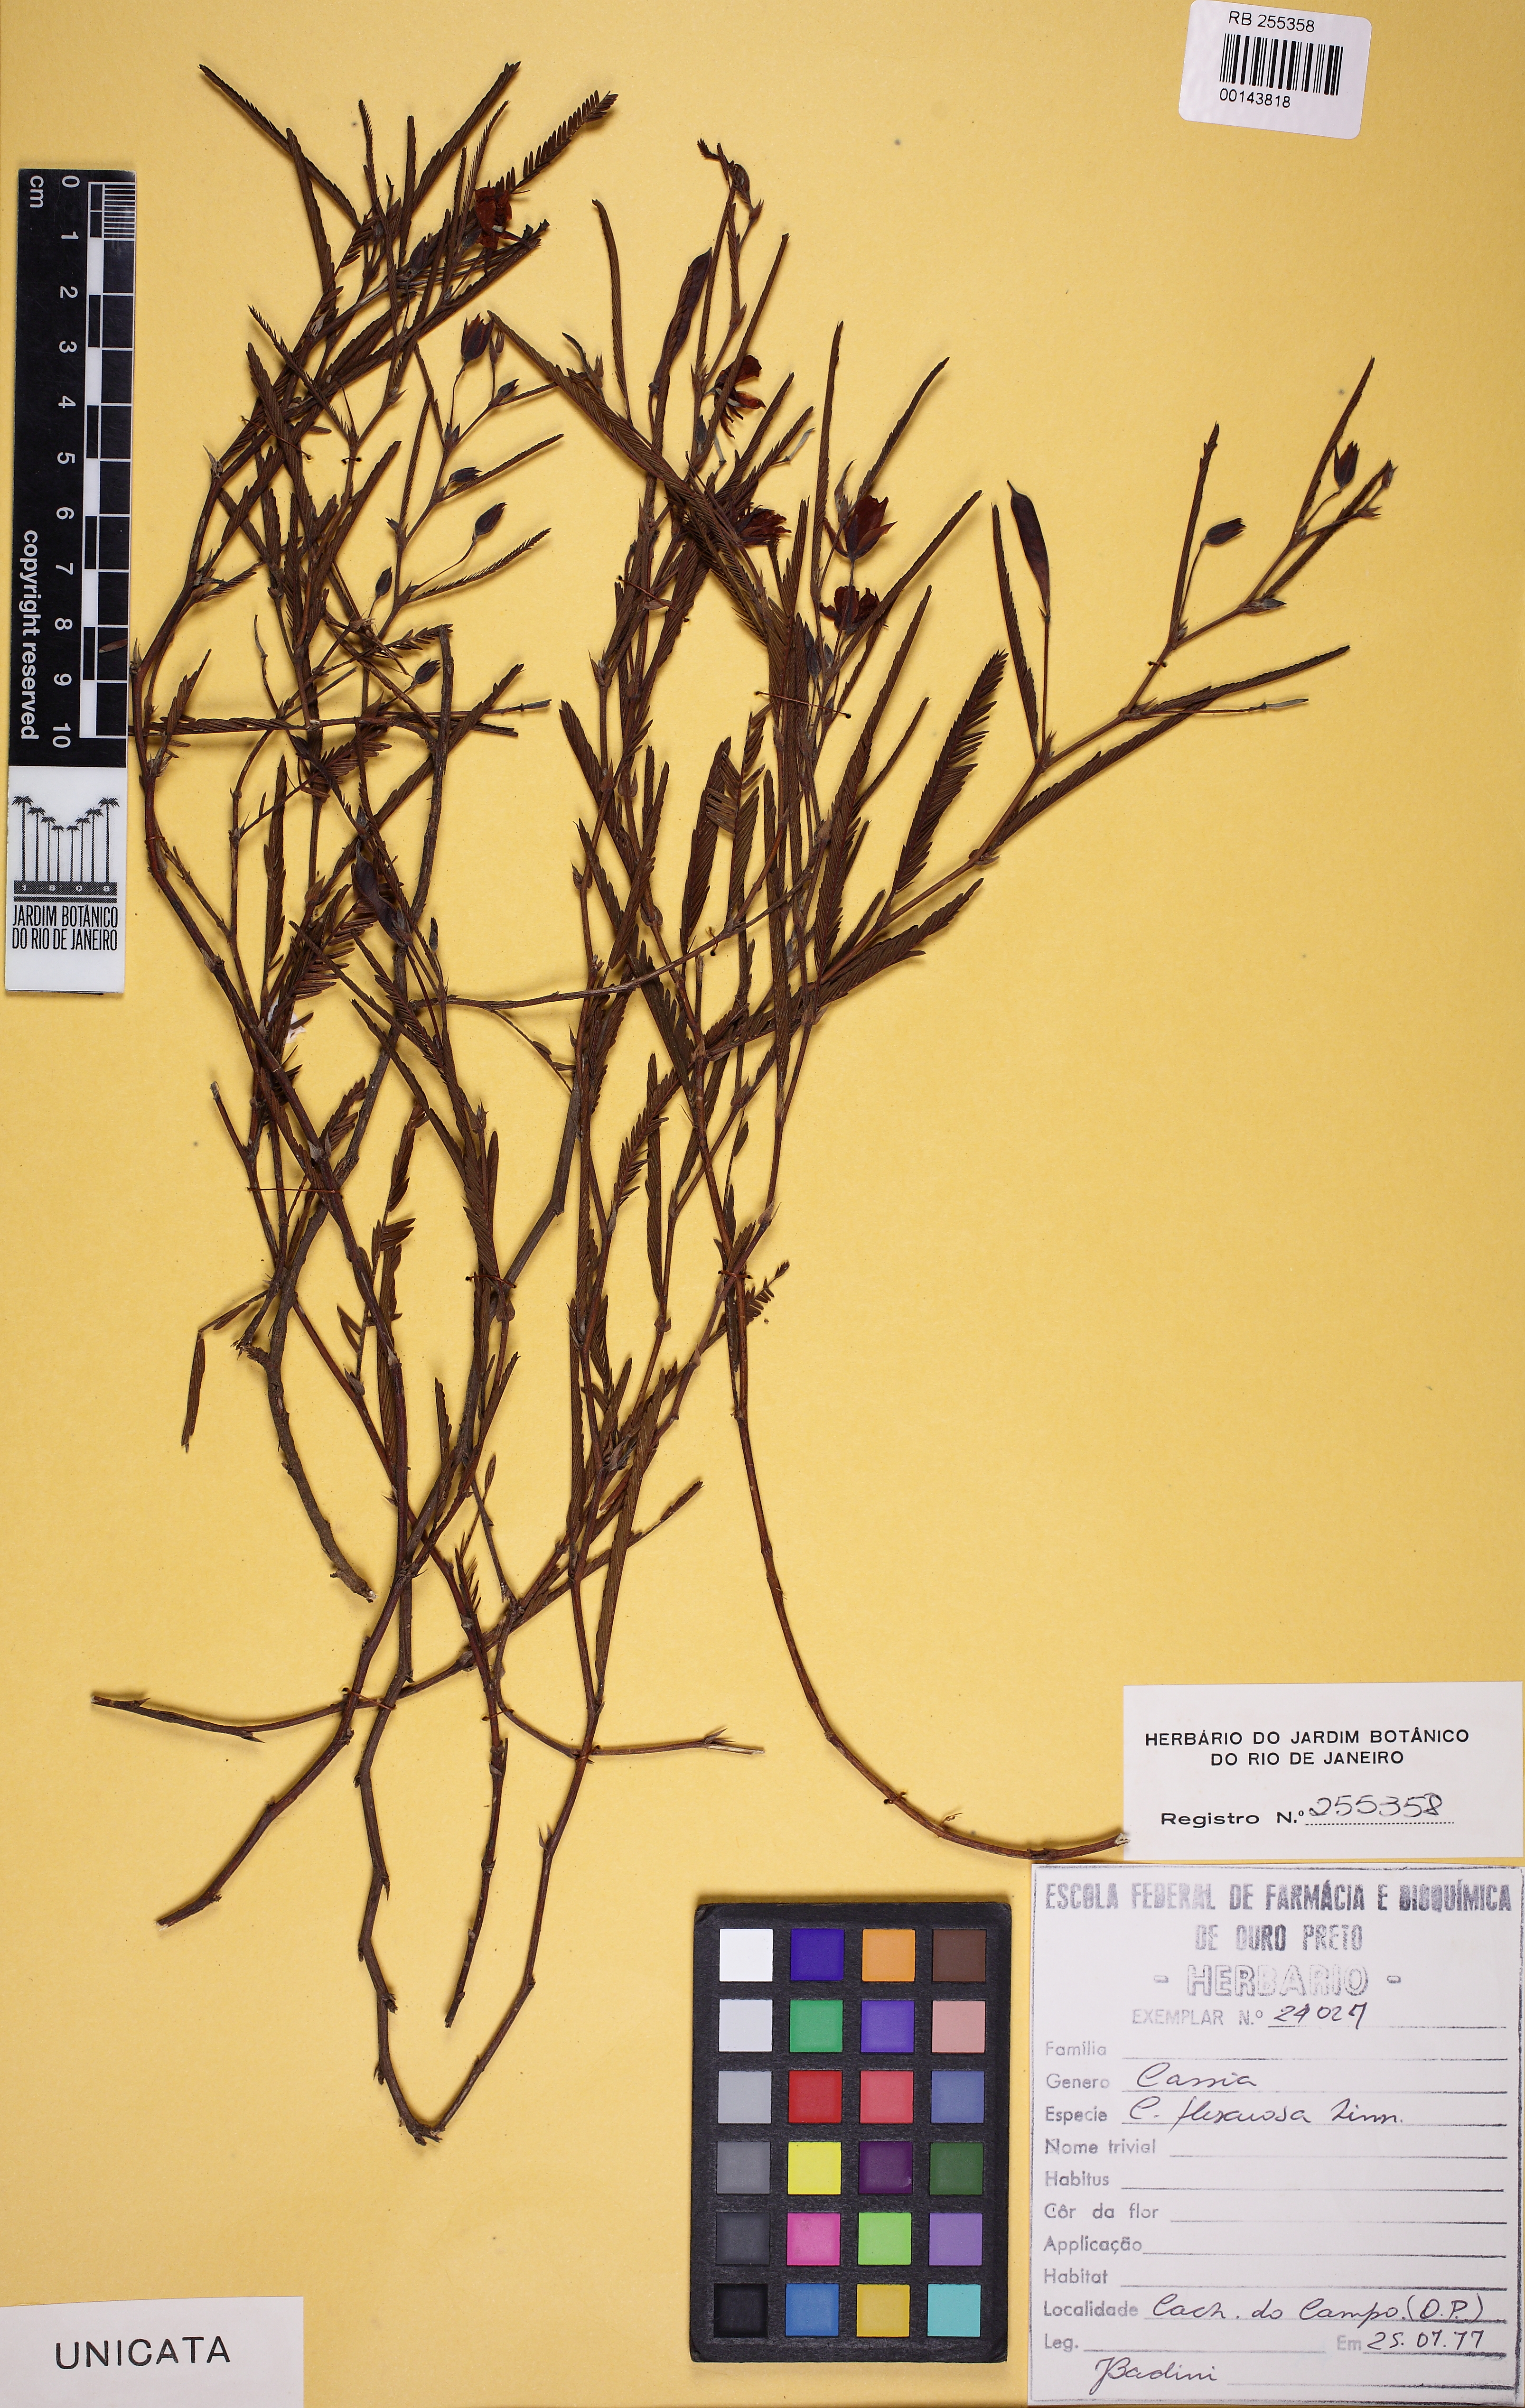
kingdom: Plantae
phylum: Tracheophyta
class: Magnoliopsida
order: Fabales
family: Fabaceae
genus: Chamaecrista
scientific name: Chamaecrista flexuosa
